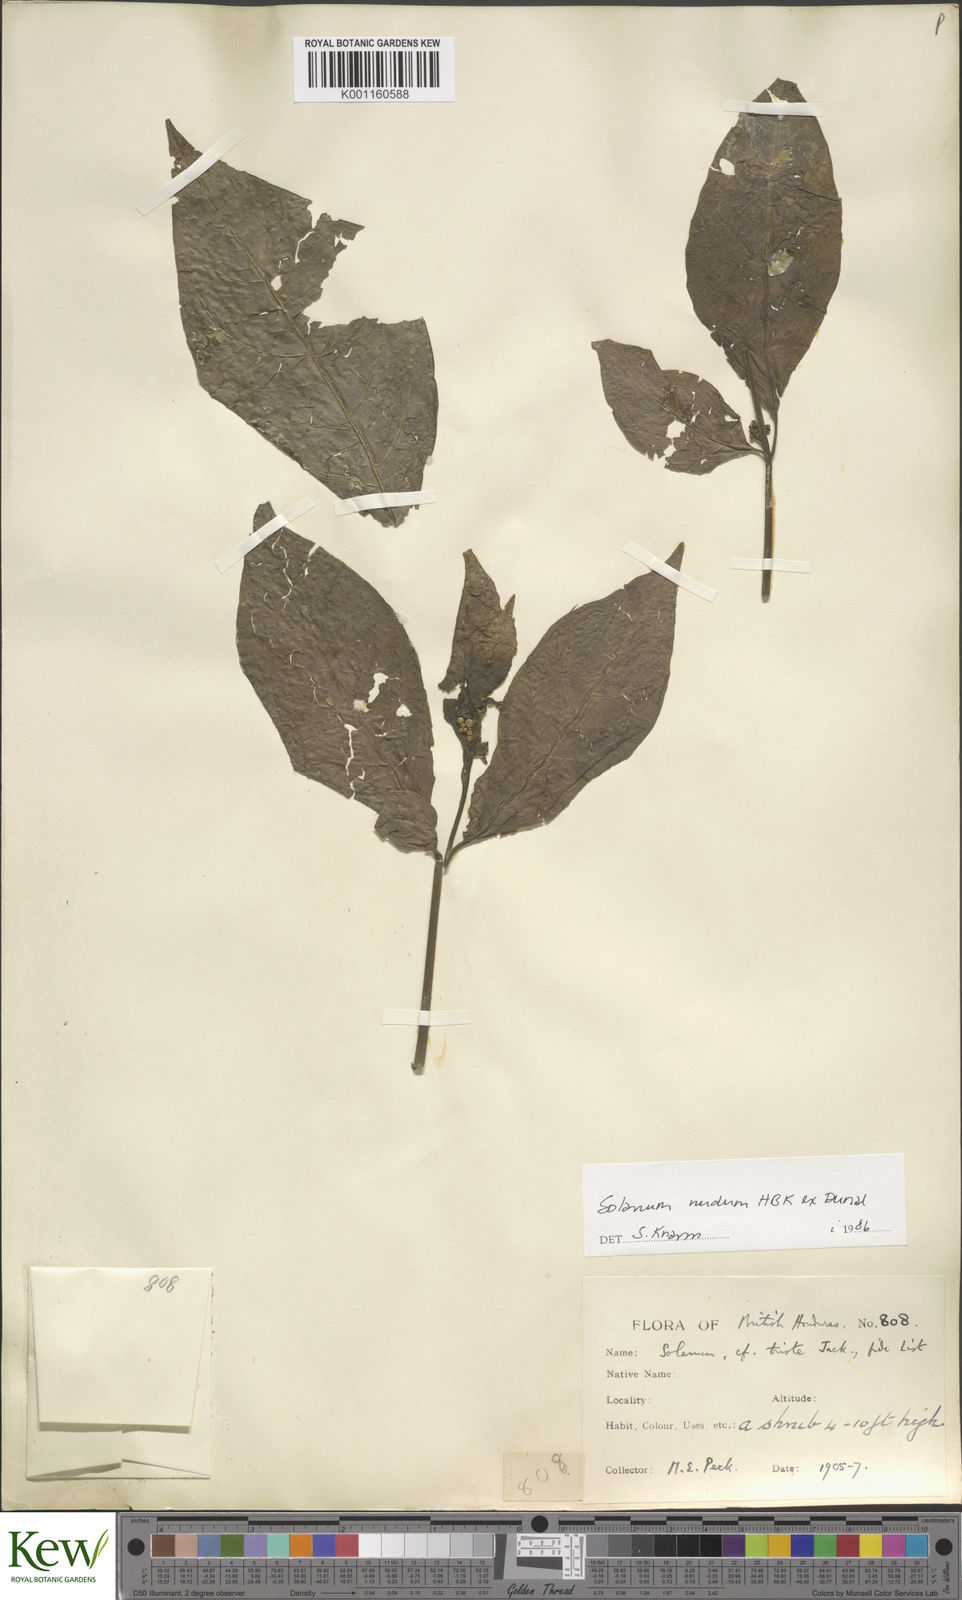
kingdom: Plantae
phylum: Tracheophyta
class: Magnoliopsida
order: Solanales
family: Solanaceae
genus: Solanum
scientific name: Solanum nudum
